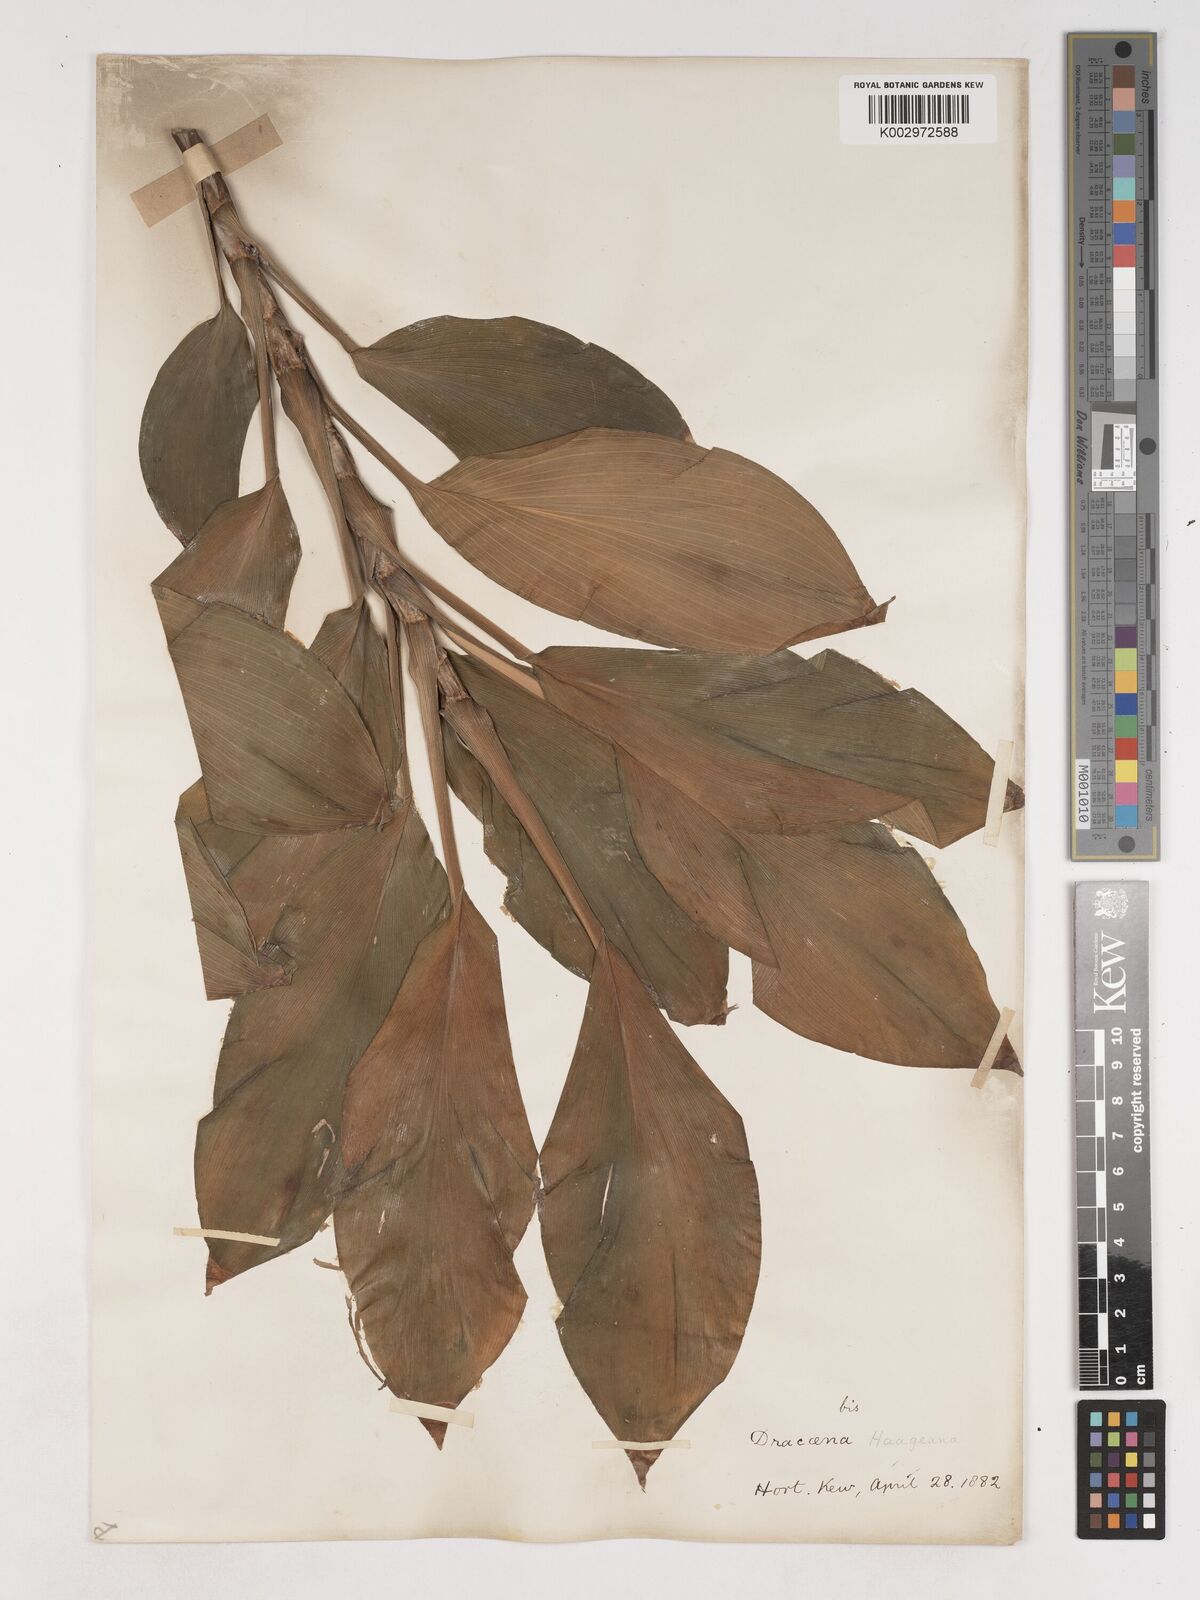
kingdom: Plantae
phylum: Tracheophyta
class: Liliopsida
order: Asparagales
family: Asparagaceae
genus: Cordyline
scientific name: Cordyline murchisoniae
